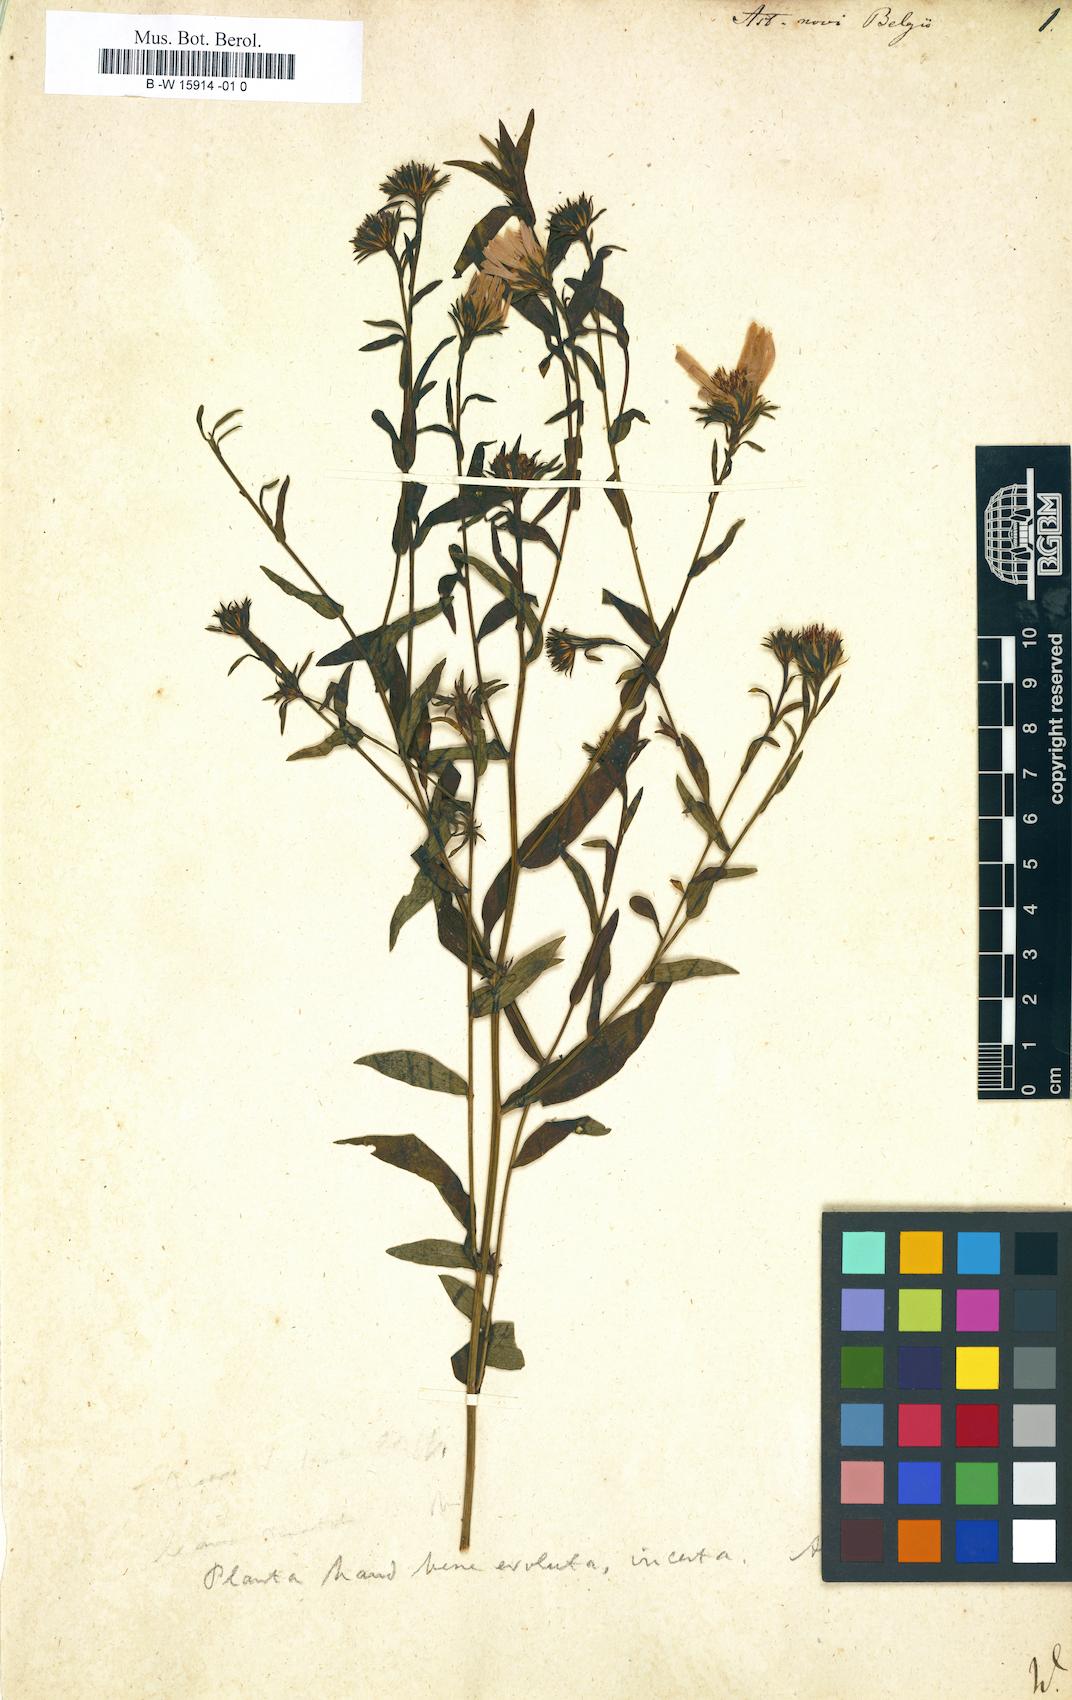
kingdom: Plantae
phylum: Tracheophyta
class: Magnoliopsida
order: Asterales
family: Asteraceae
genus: Symphyotrichum
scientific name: Symphyotrichum novi-belgii
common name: Michaelmas daisy
